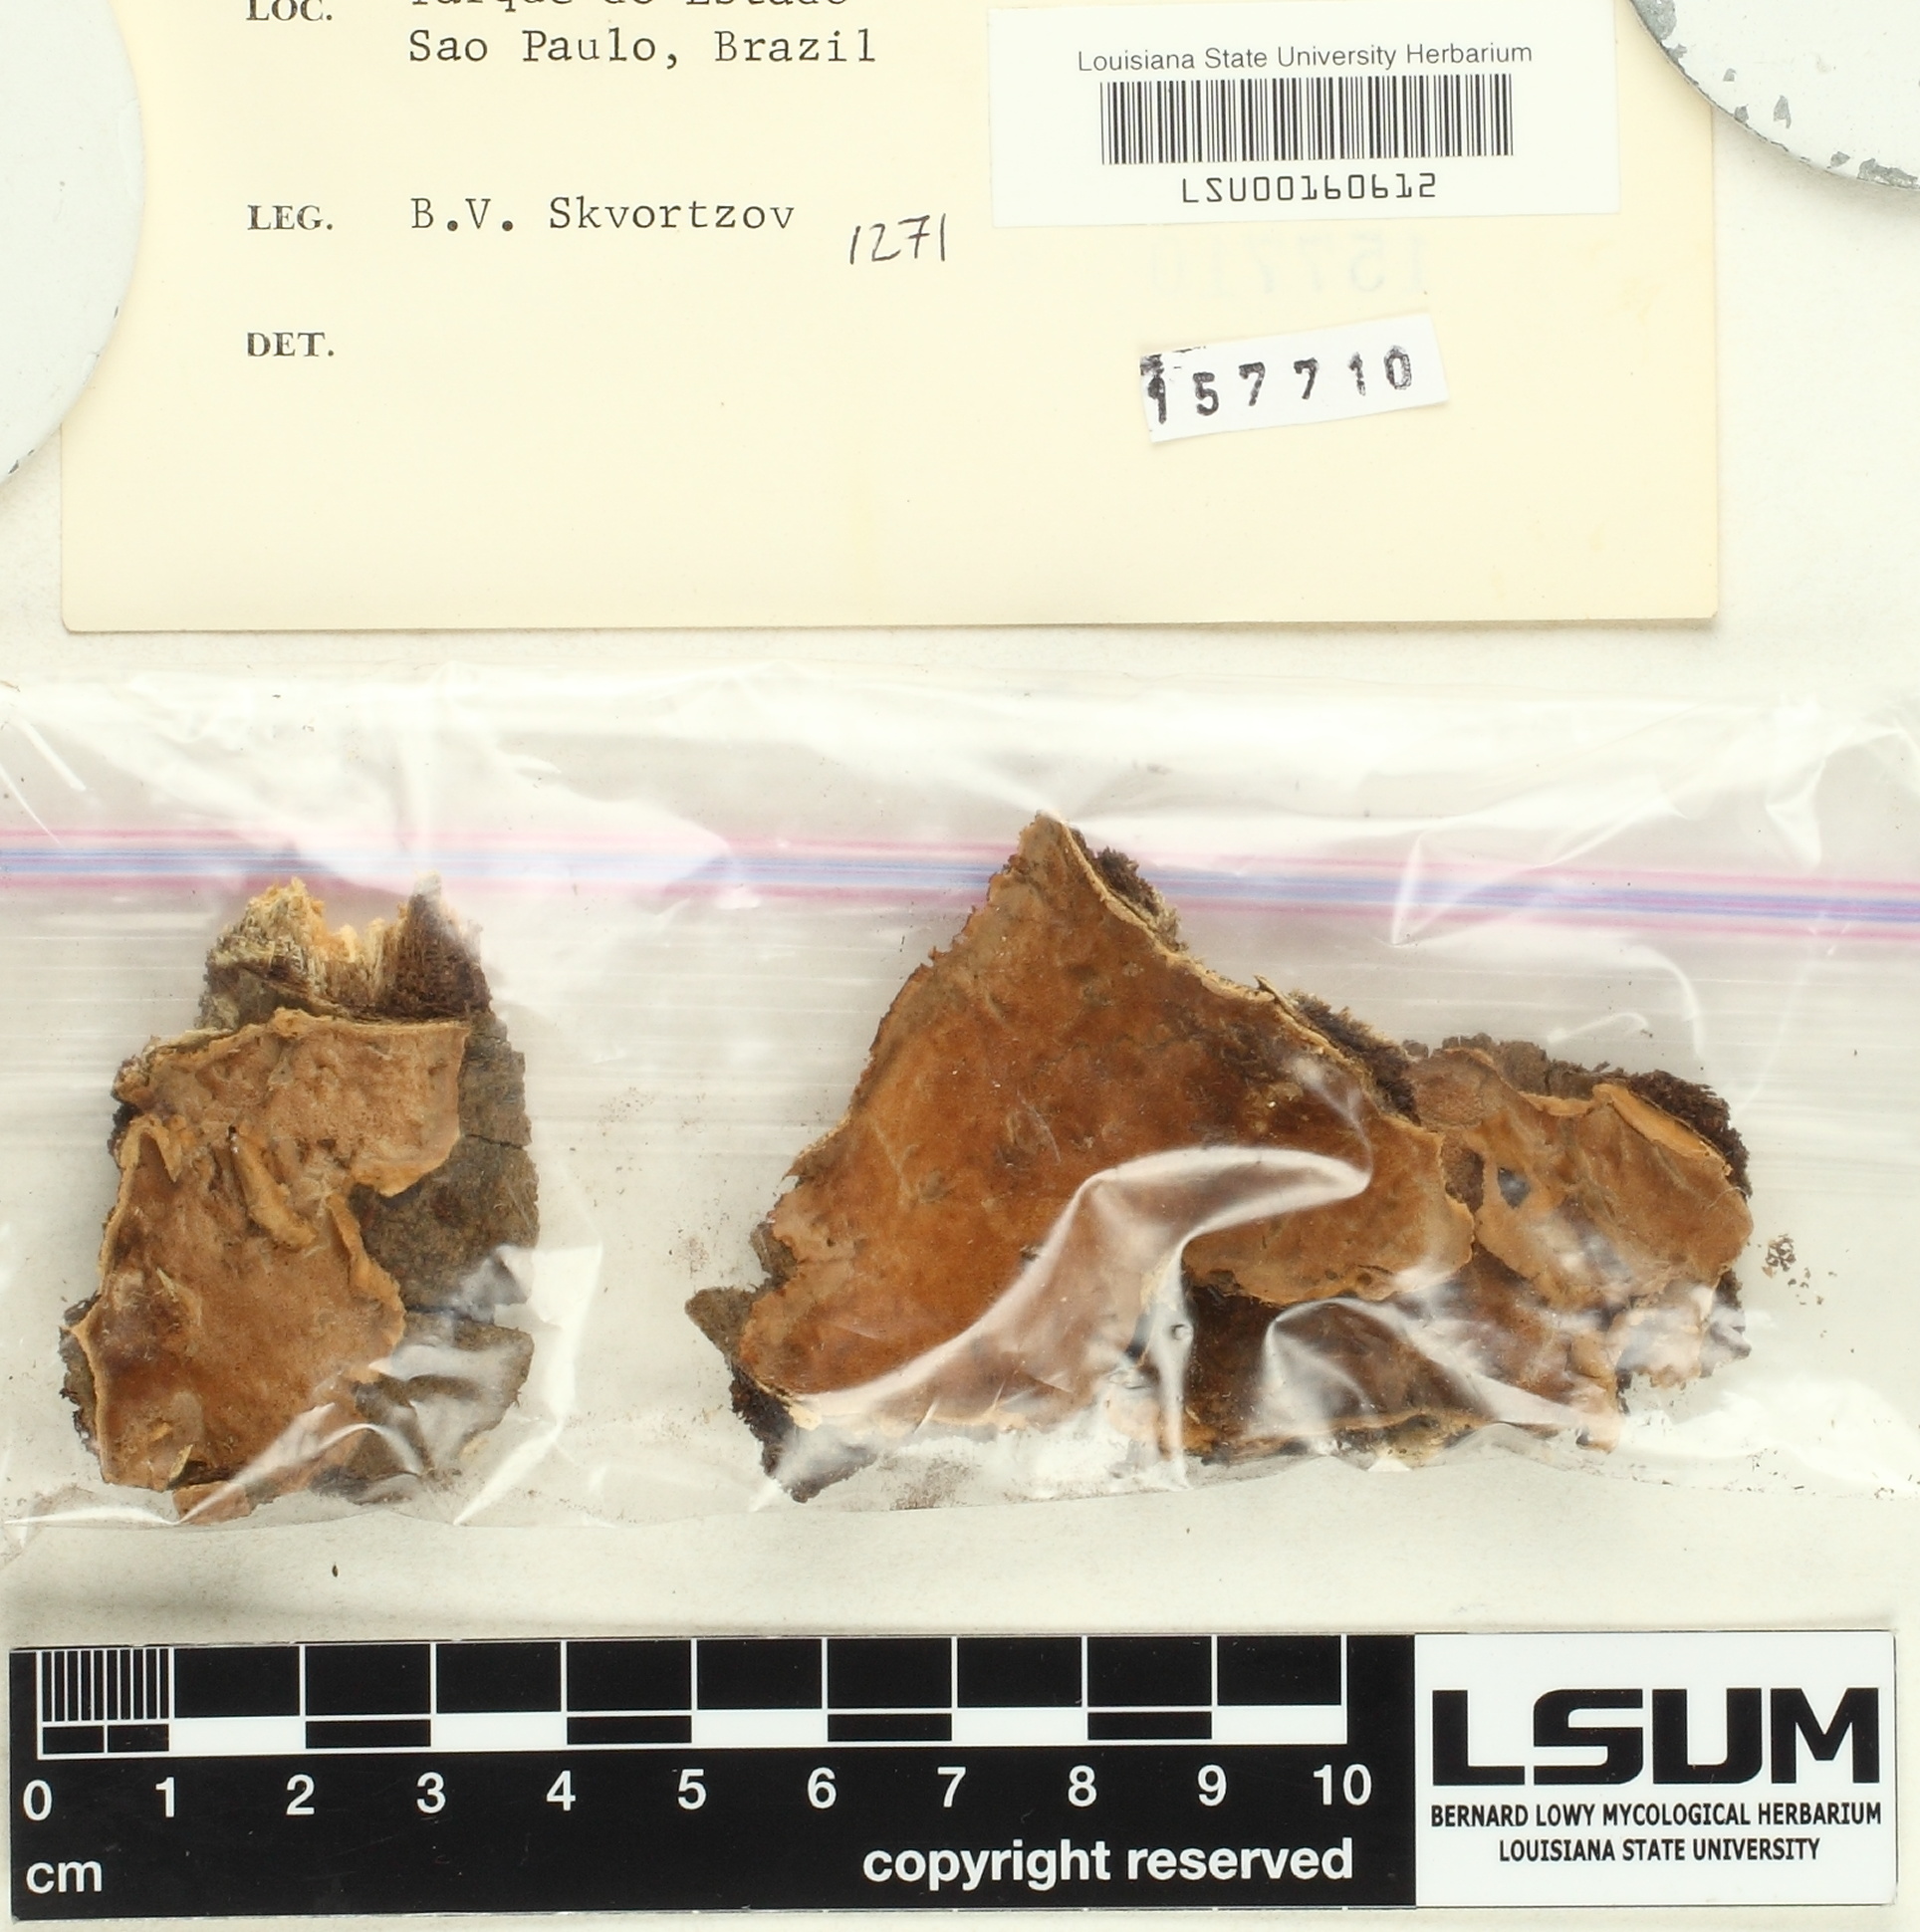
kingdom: Fungi
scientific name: Fungi
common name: Fungi
